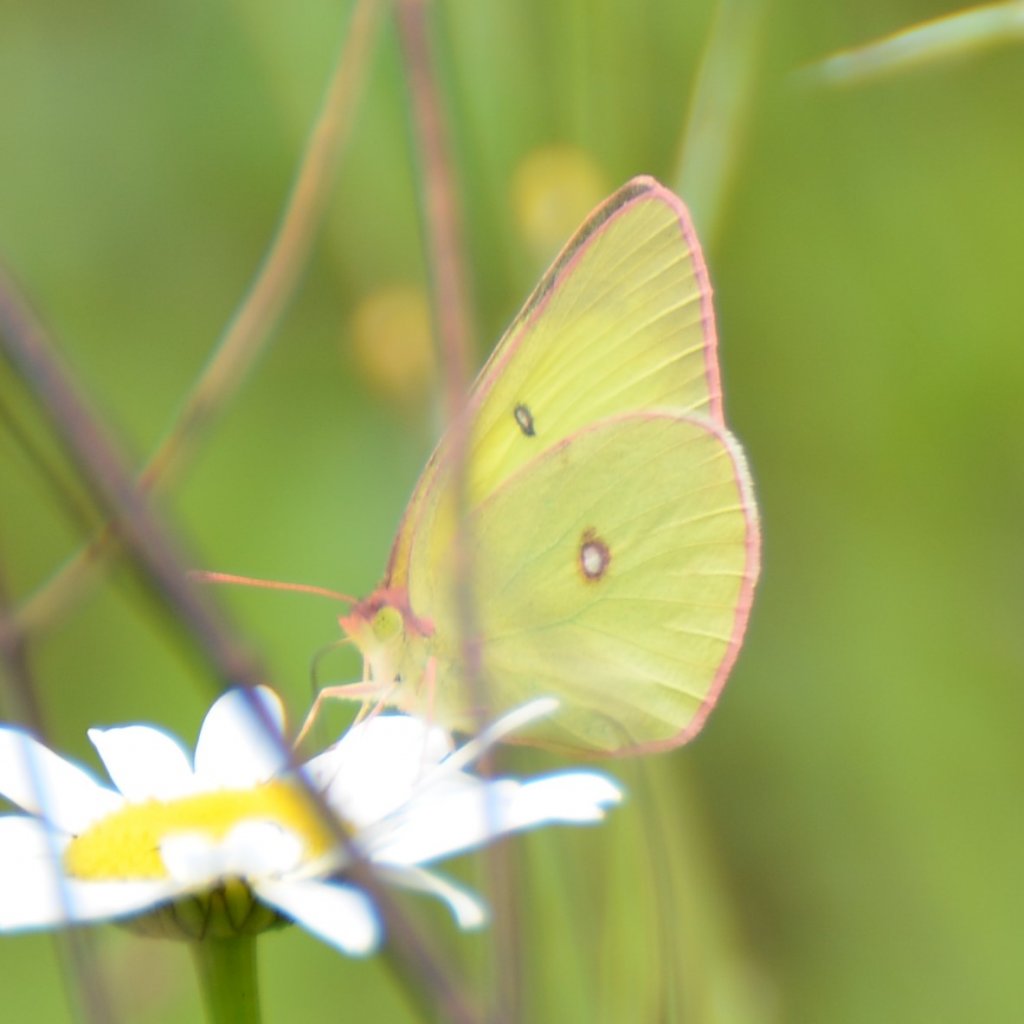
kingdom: Animalia
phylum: Arthropoda
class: Insecta
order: Lepidoptera
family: Pieridae
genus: Colias
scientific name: Colias interior
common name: Pink-edged Sulphur
